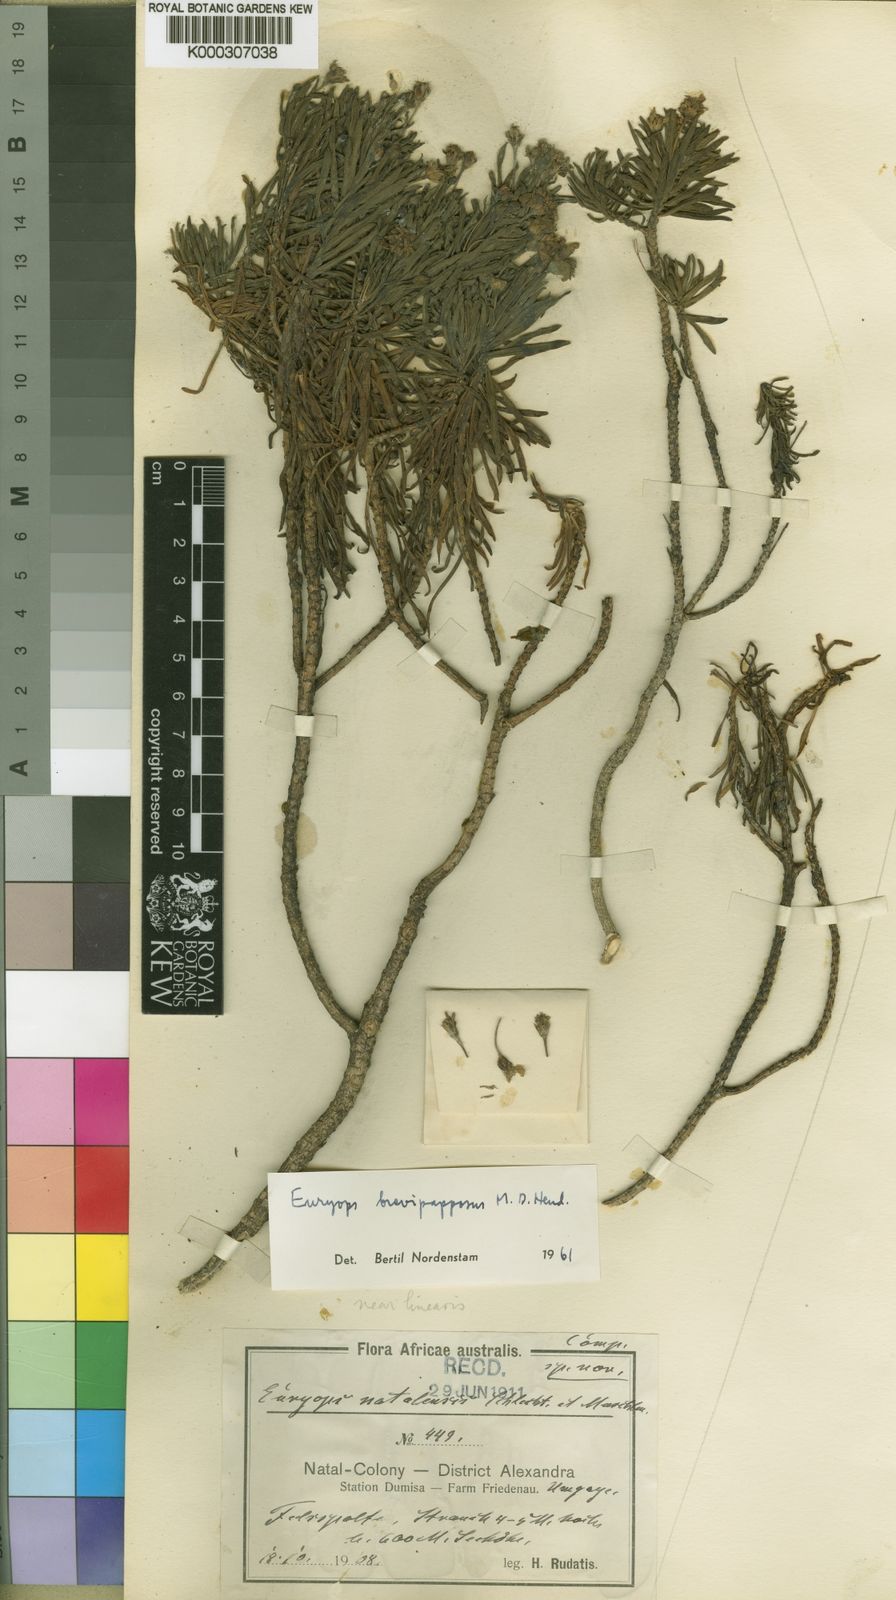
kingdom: Plantae
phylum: Tracheophyta
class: Magnoliopsida
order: Asterales
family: Asteraceae
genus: Euryops
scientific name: Euryops brevipapposus
